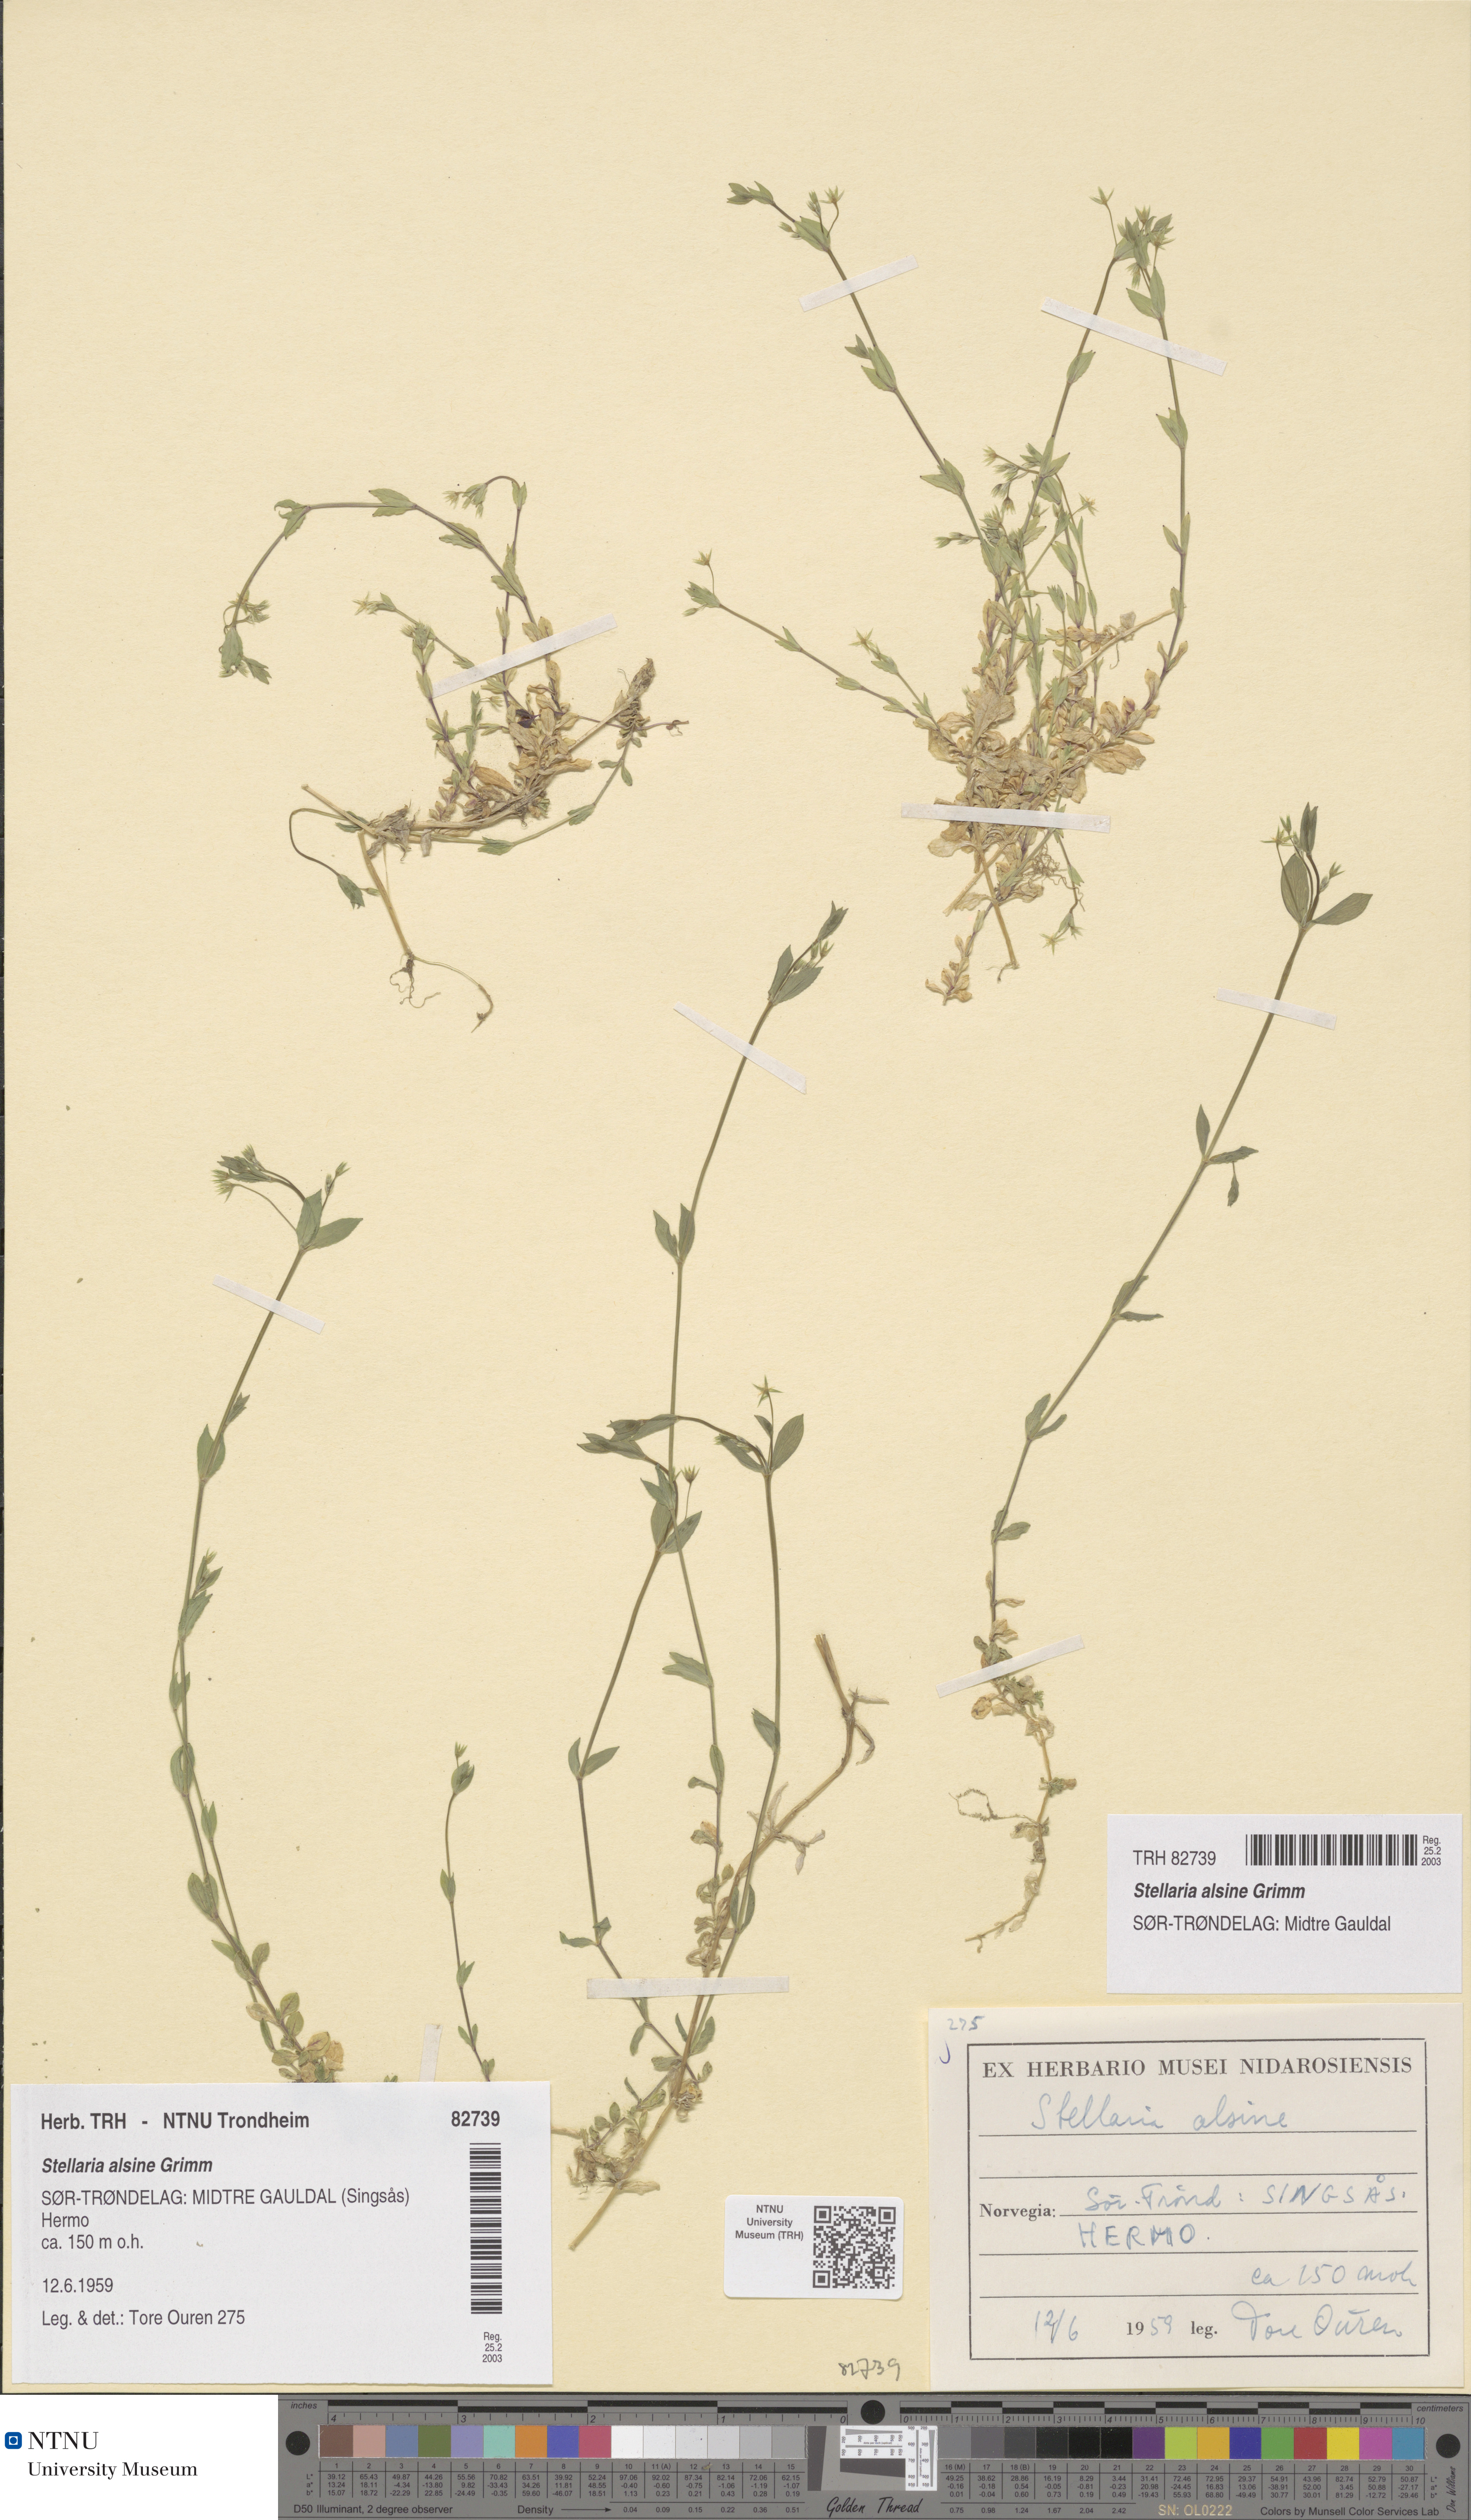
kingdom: Plantae
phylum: Tracheophyta
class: Magnoliopsida
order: Caryophyllales
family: Caryophyllaceae
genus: Stellaria
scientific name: Stellaria alsine
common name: Bog stitchwort
